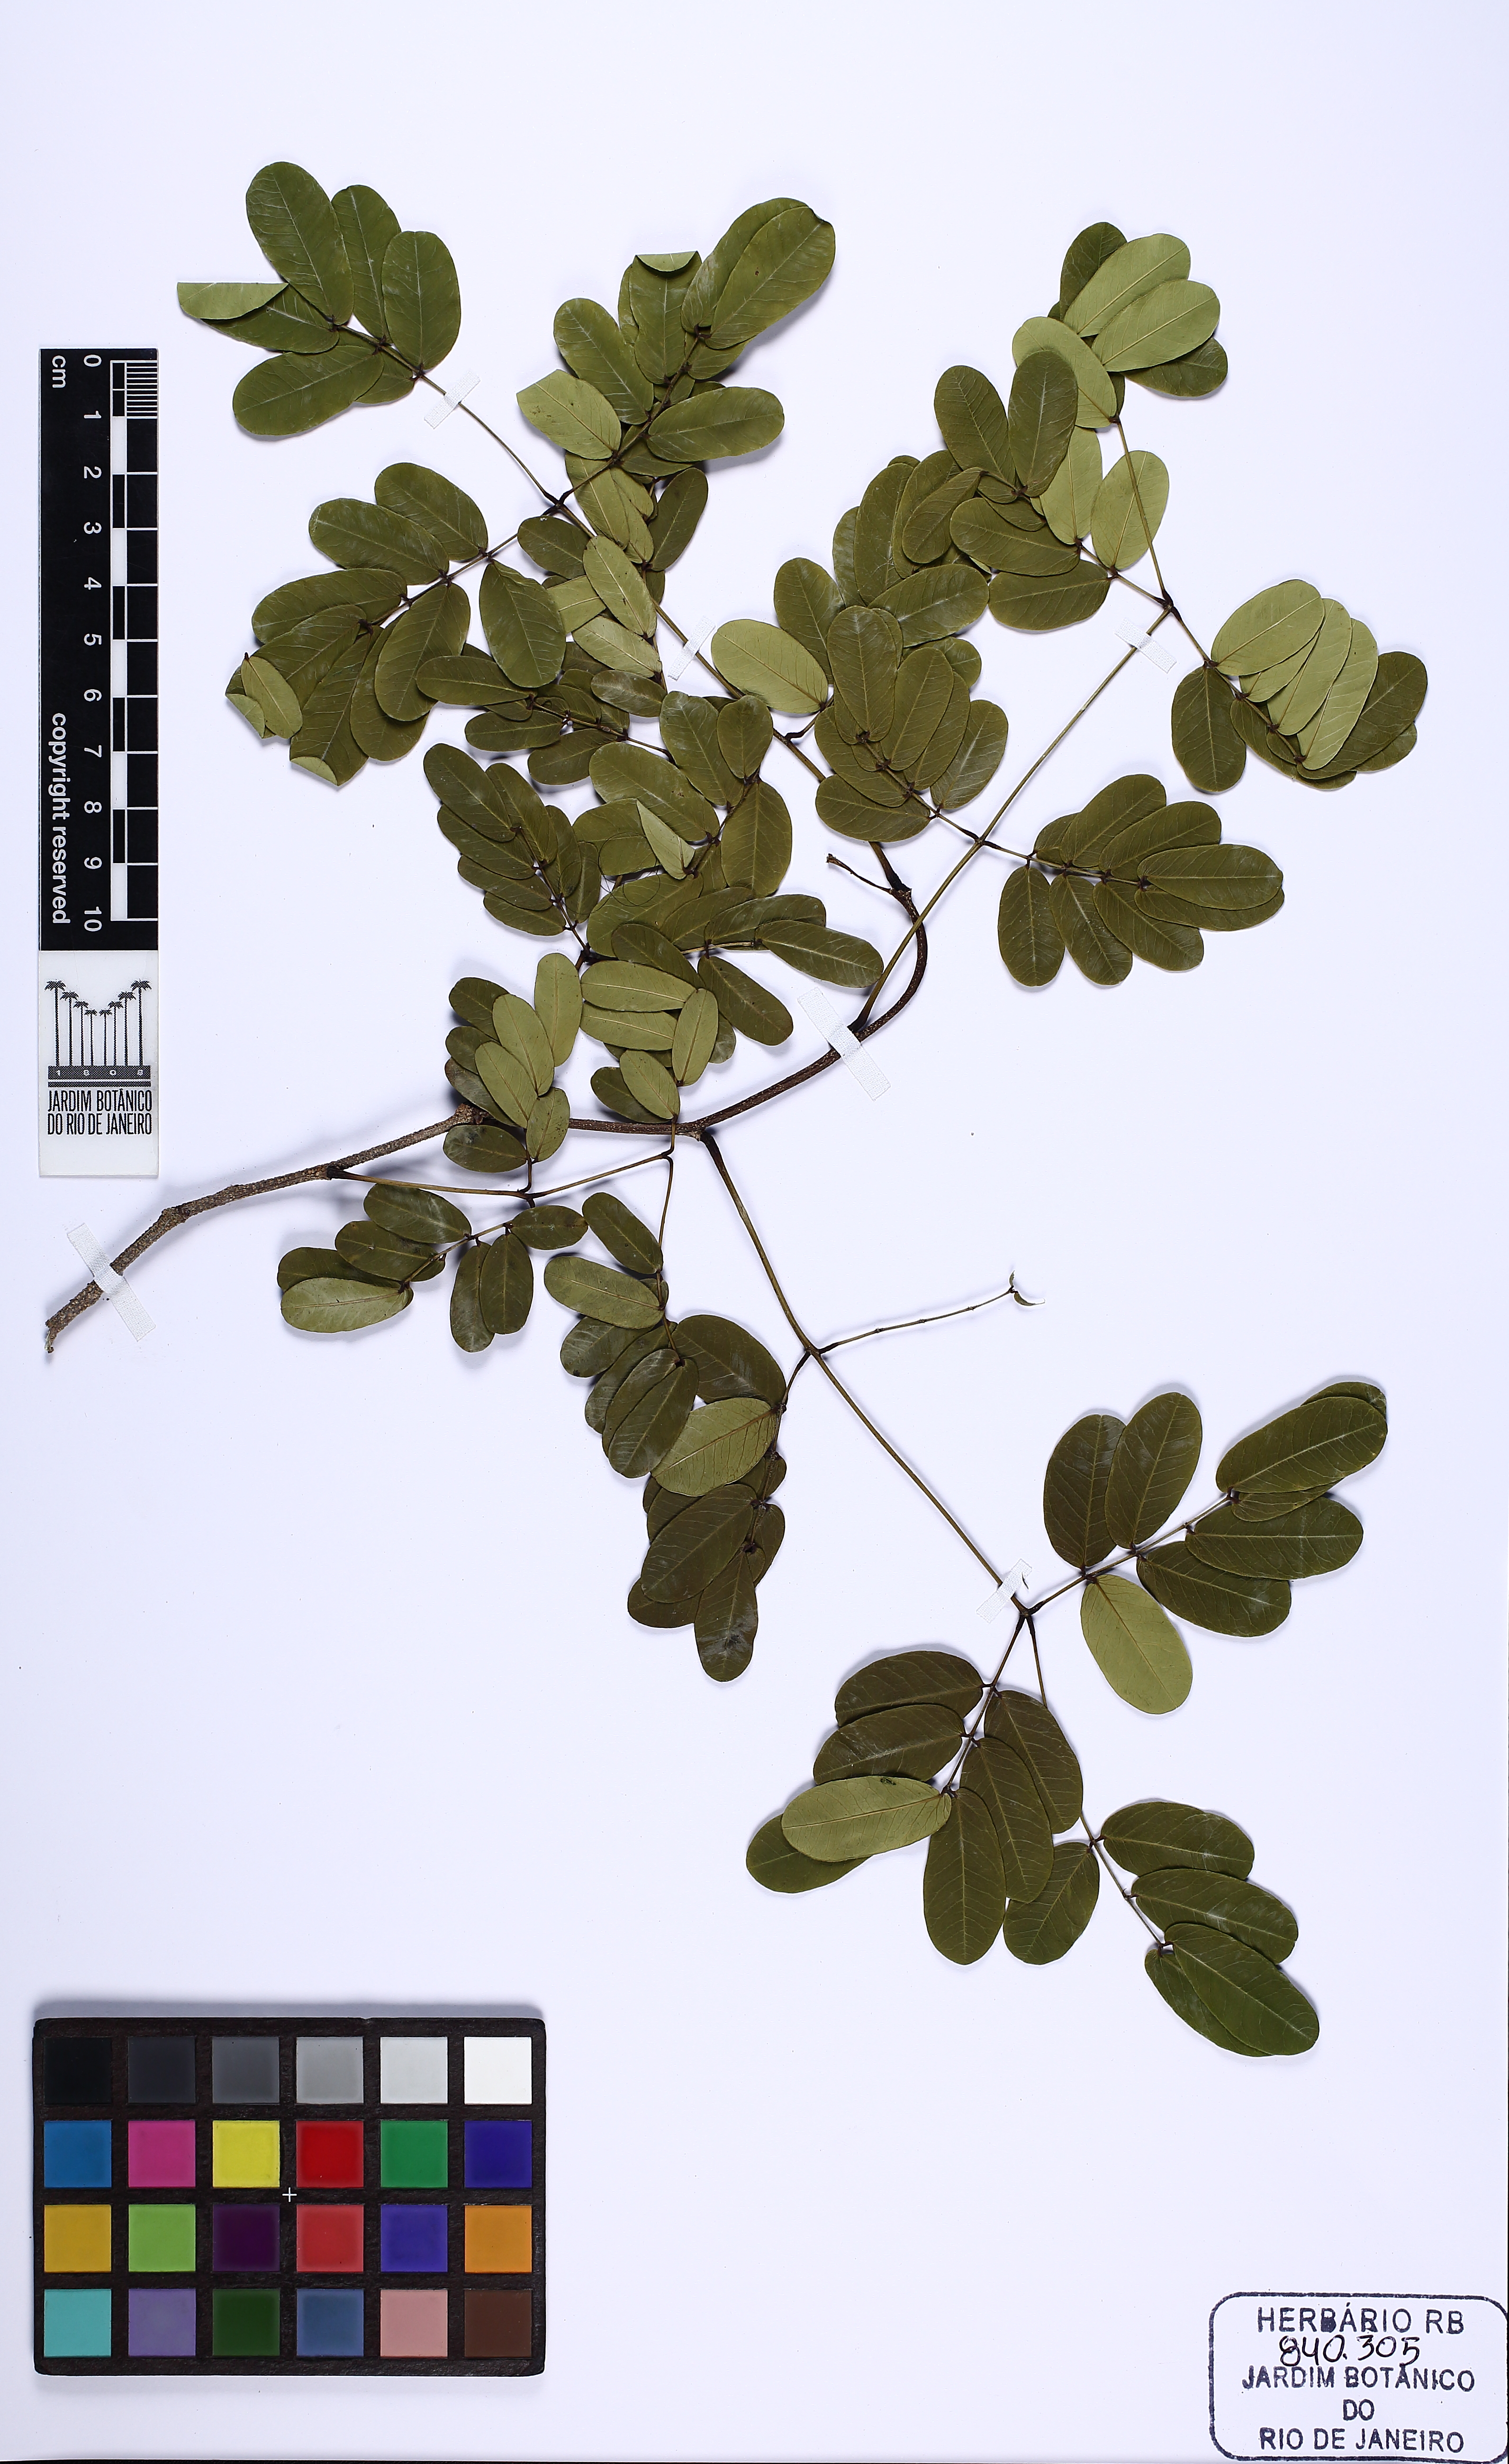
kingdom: Plantae
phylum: Tracheophyta
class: Magnoliopsida
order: Fabales
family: Fabaceae
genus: Libidibia
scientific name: Libidibia ferrea
